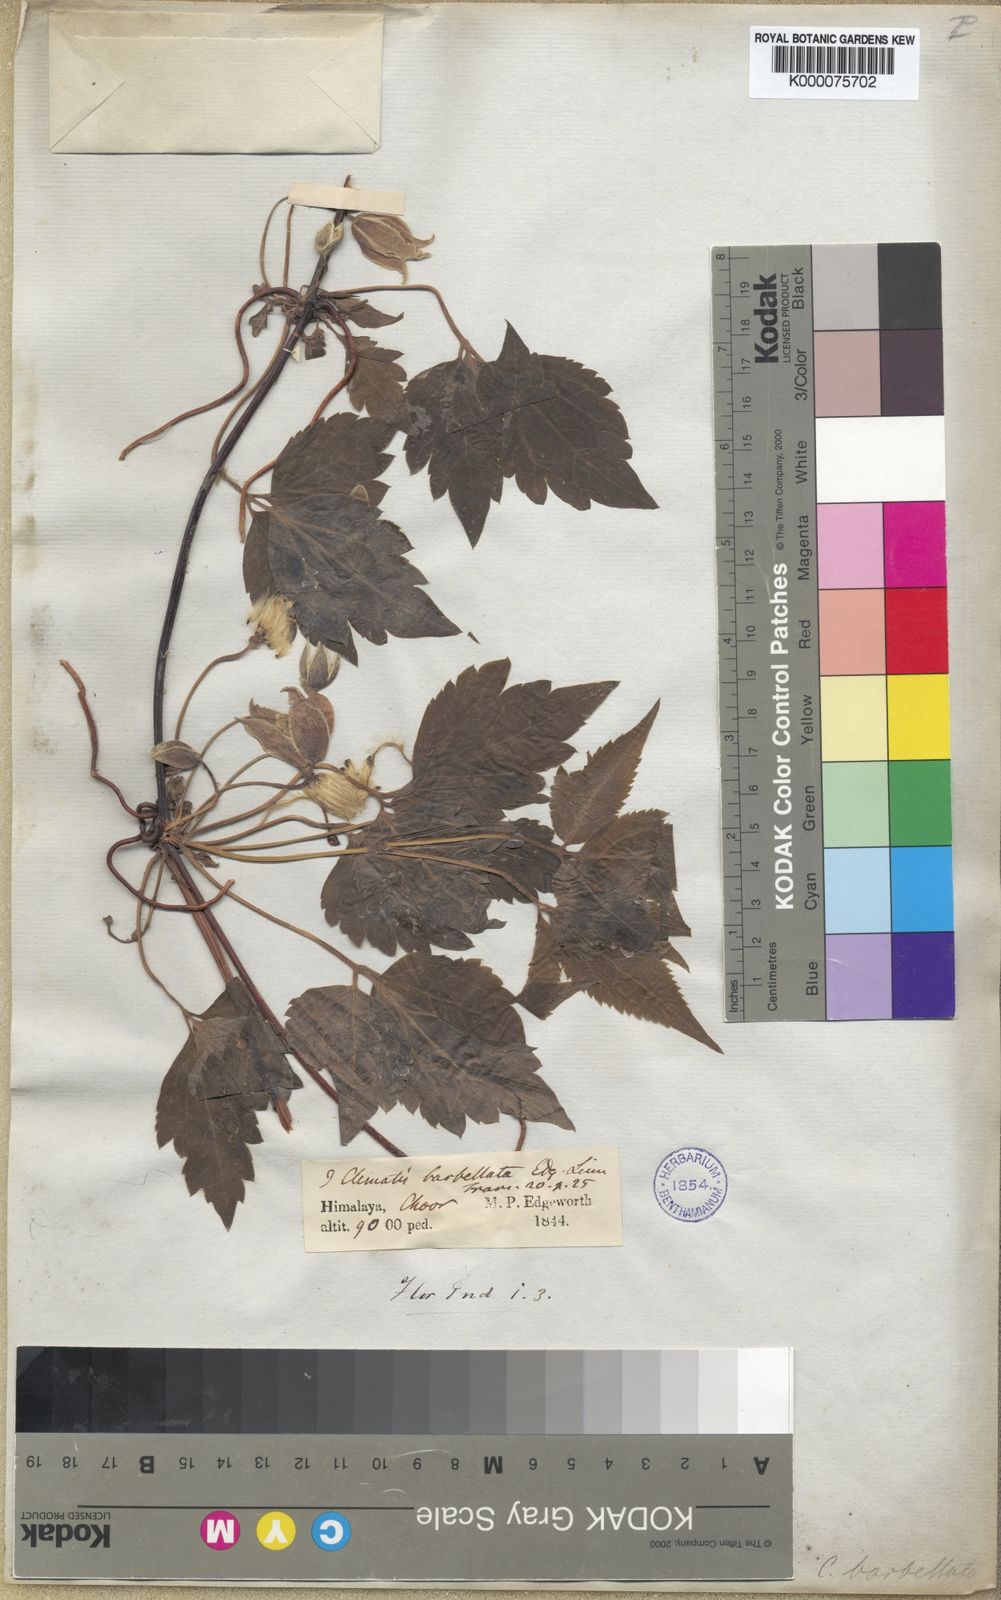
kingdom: Plantae
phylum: Tracheophyta
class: Magnoliopsida
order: Ranunculales
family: Ranunculaceae
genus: Clematis
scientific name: Clematis barbellata
